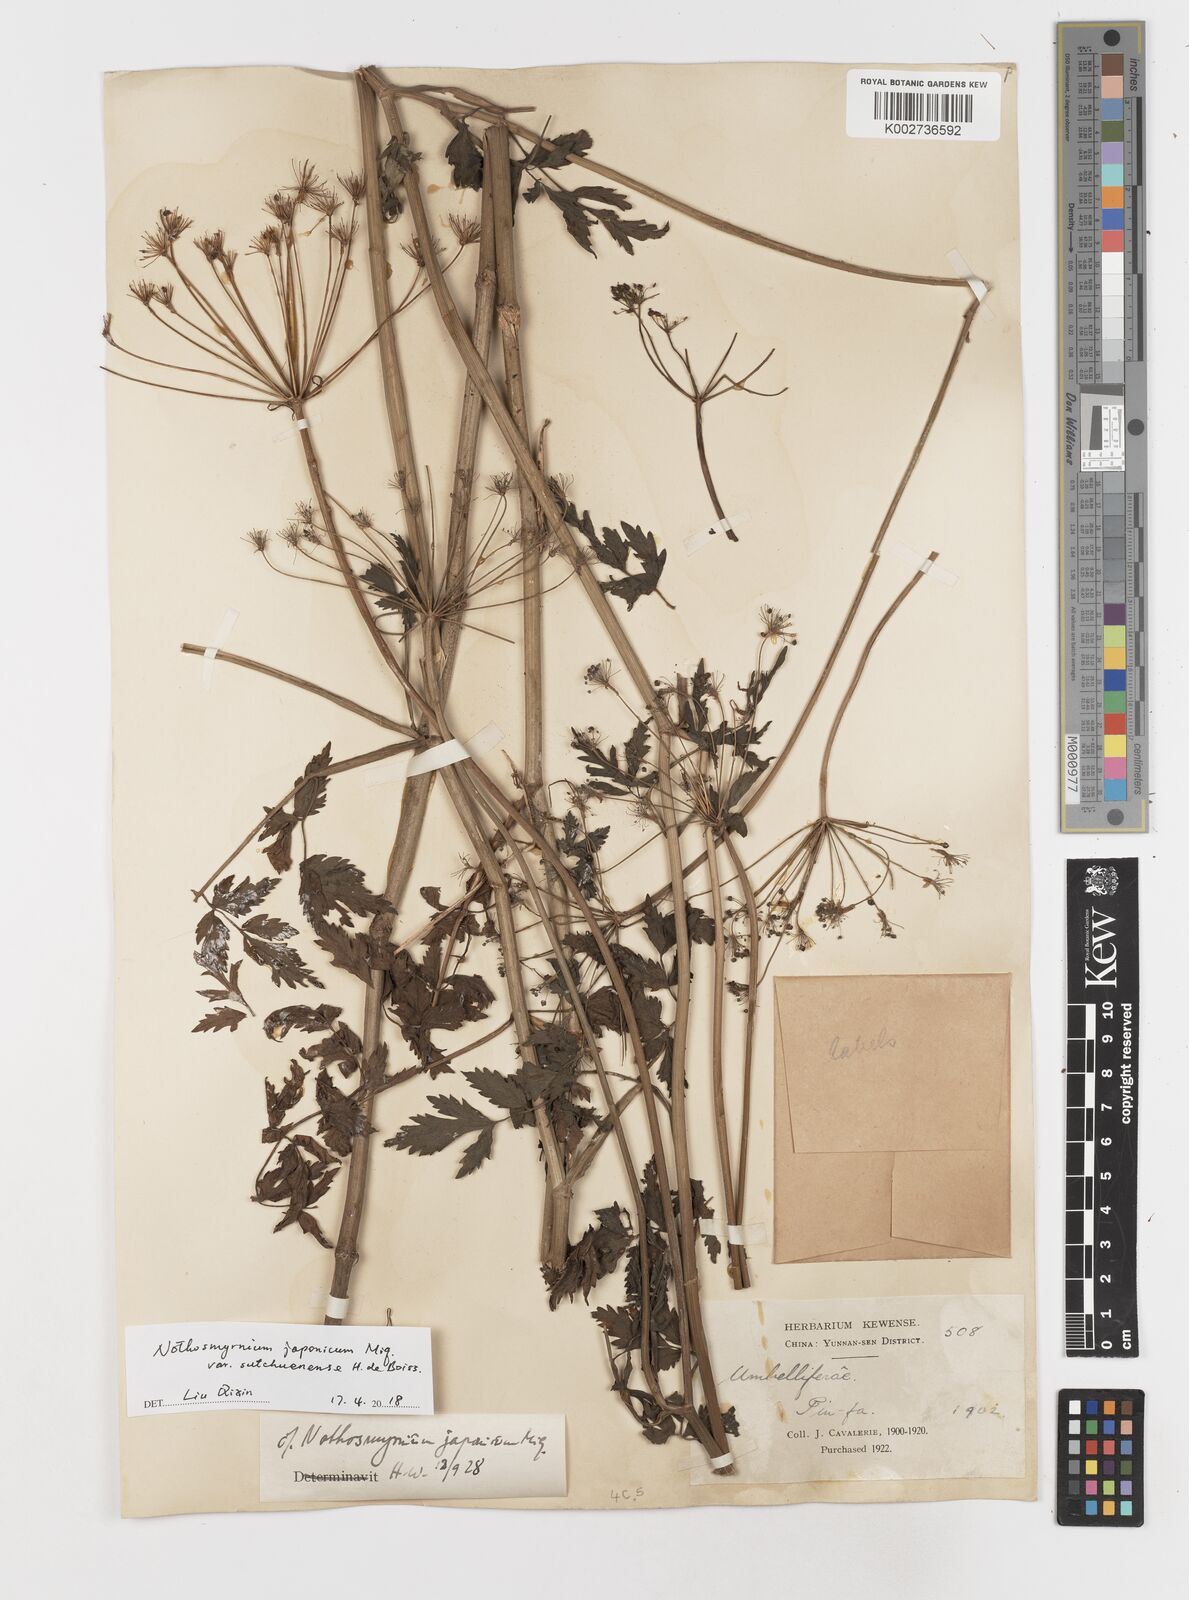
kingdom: Plantae
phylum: Tracheophyta
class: Magnoliopsida
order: Apiales
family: Apiaceae
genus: Nothosmyrnium
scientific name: Nothosmyrnium japonicum
